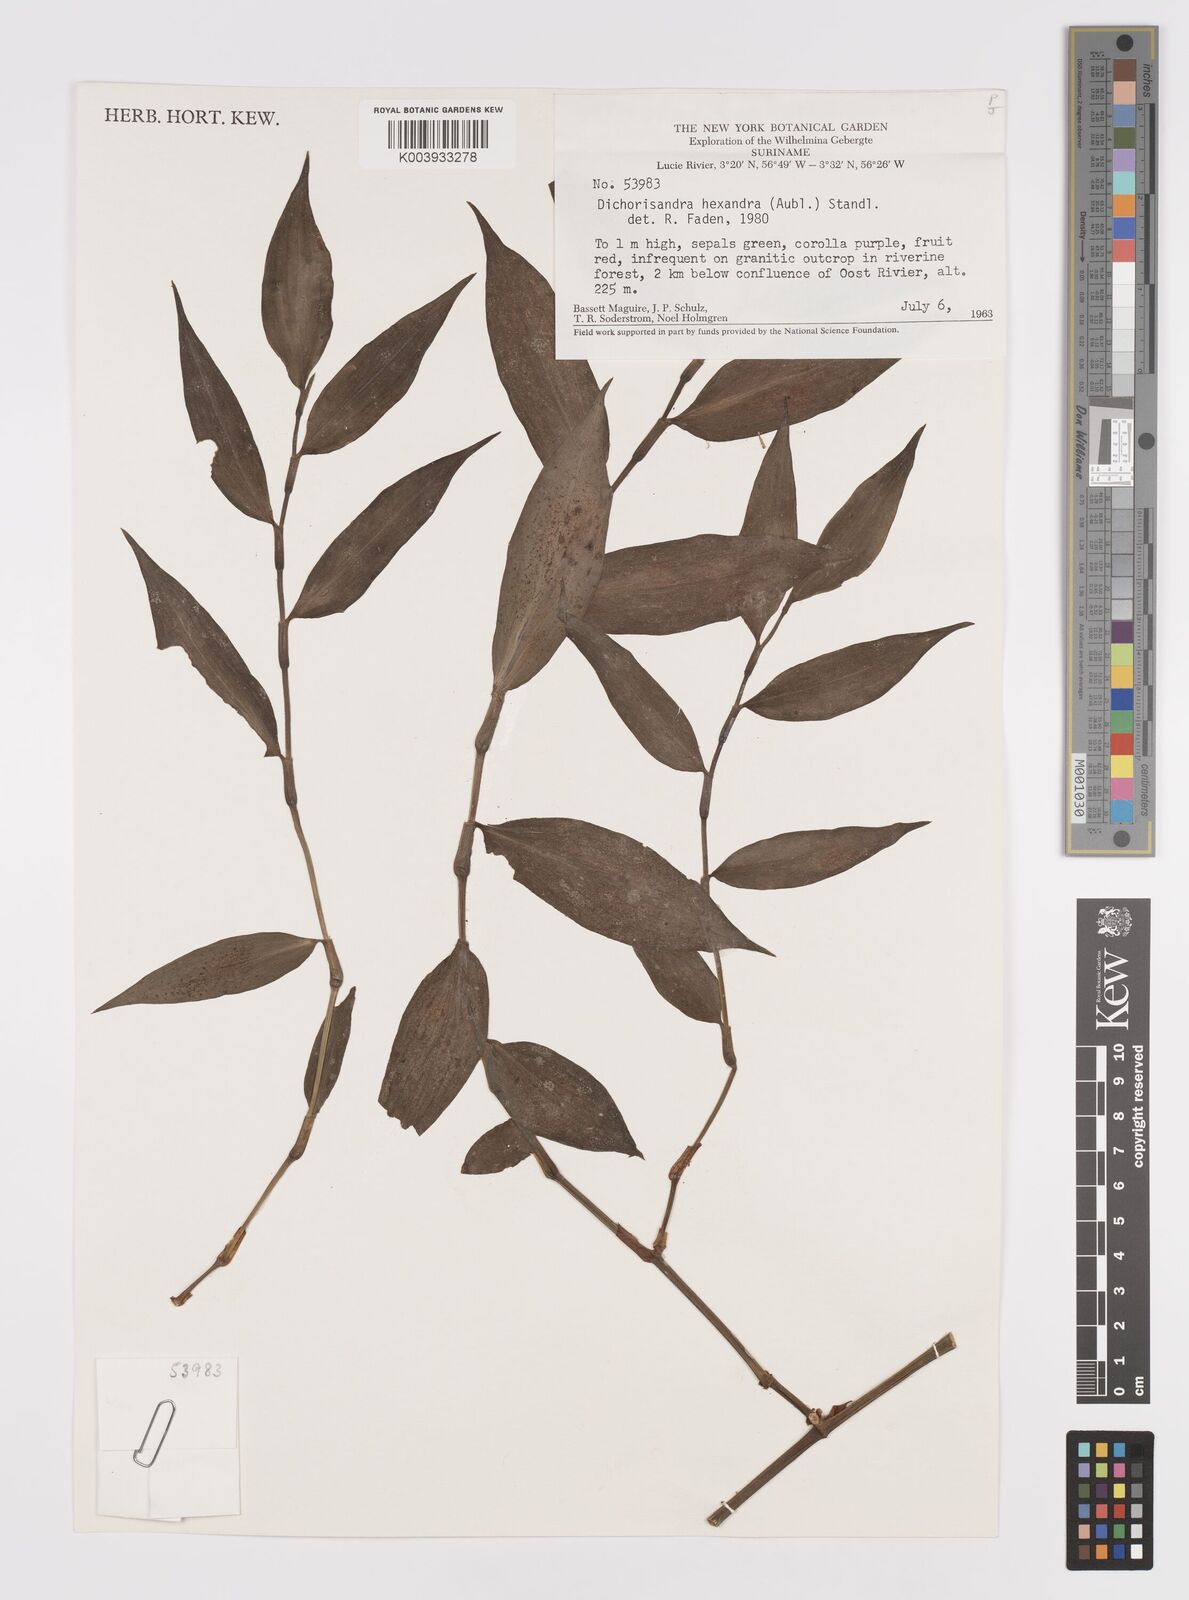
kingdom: Plantae
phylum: Tracheophyta
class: Liliopsida
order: Commelinales
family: Commelinaceae
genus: Dichorisandra
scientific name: Dichorisandra hexandra
